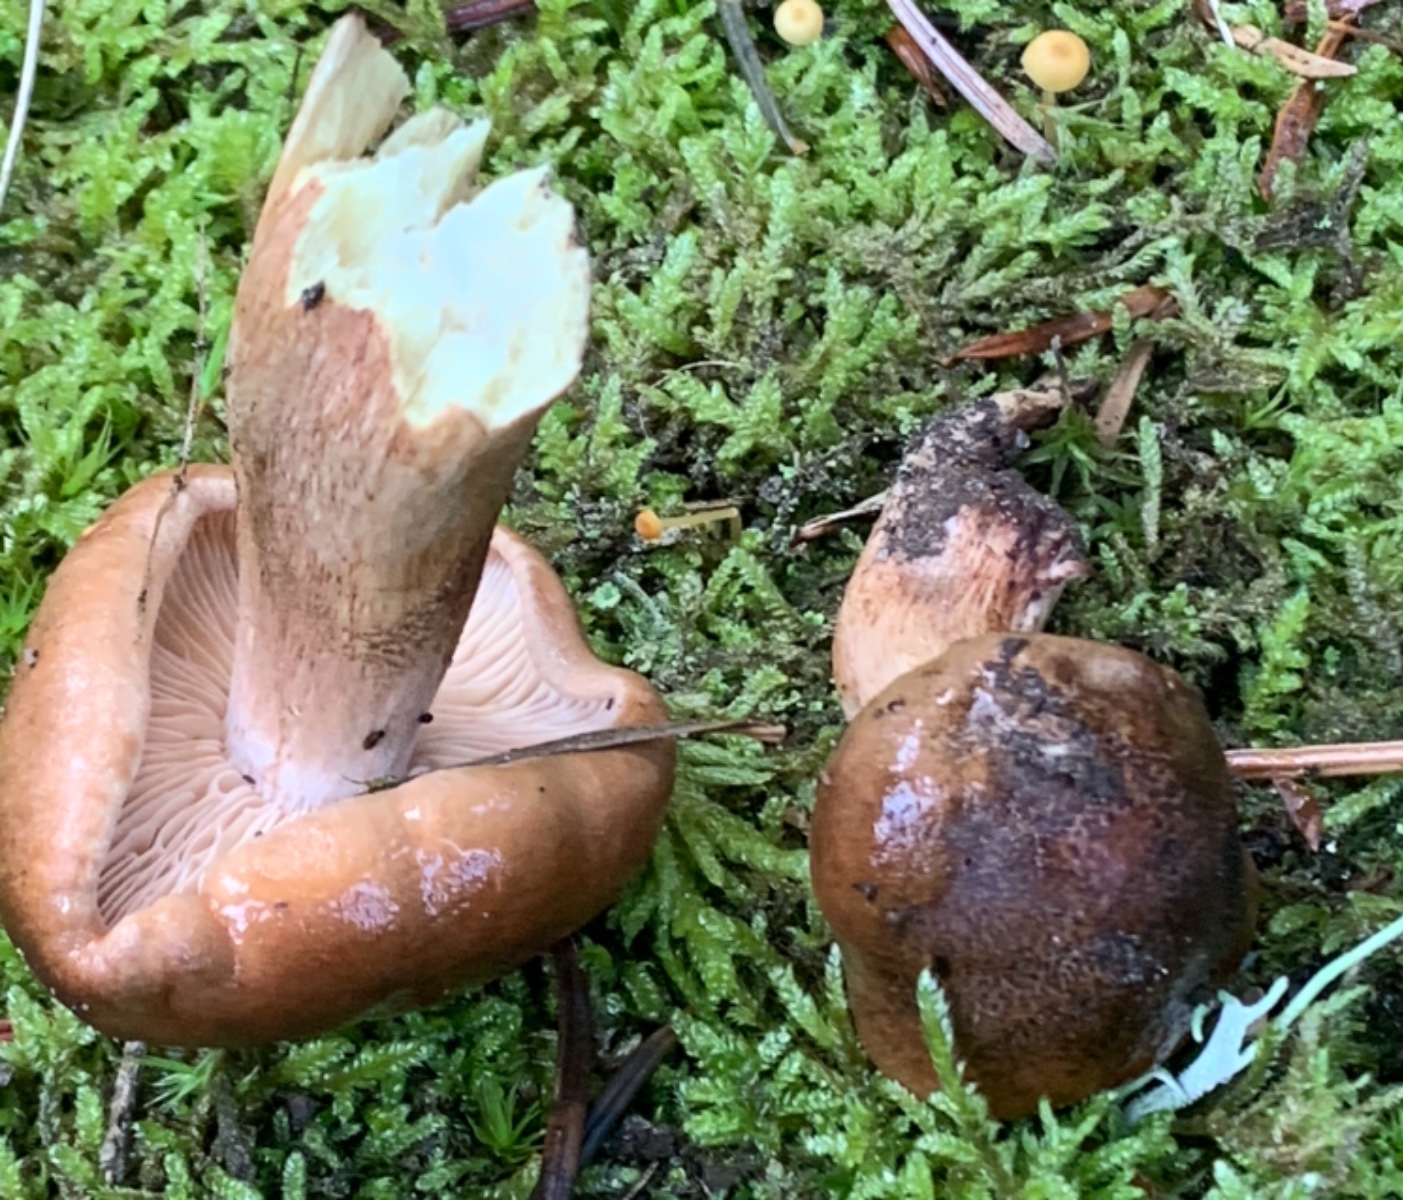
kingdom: Fungi
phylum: Basidiomycota
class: Agaricomycetes
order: Agaricales
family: Tricholomataceae
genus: Tricholoma
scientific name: Tricholoma ustale
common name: sveden ridderhat
